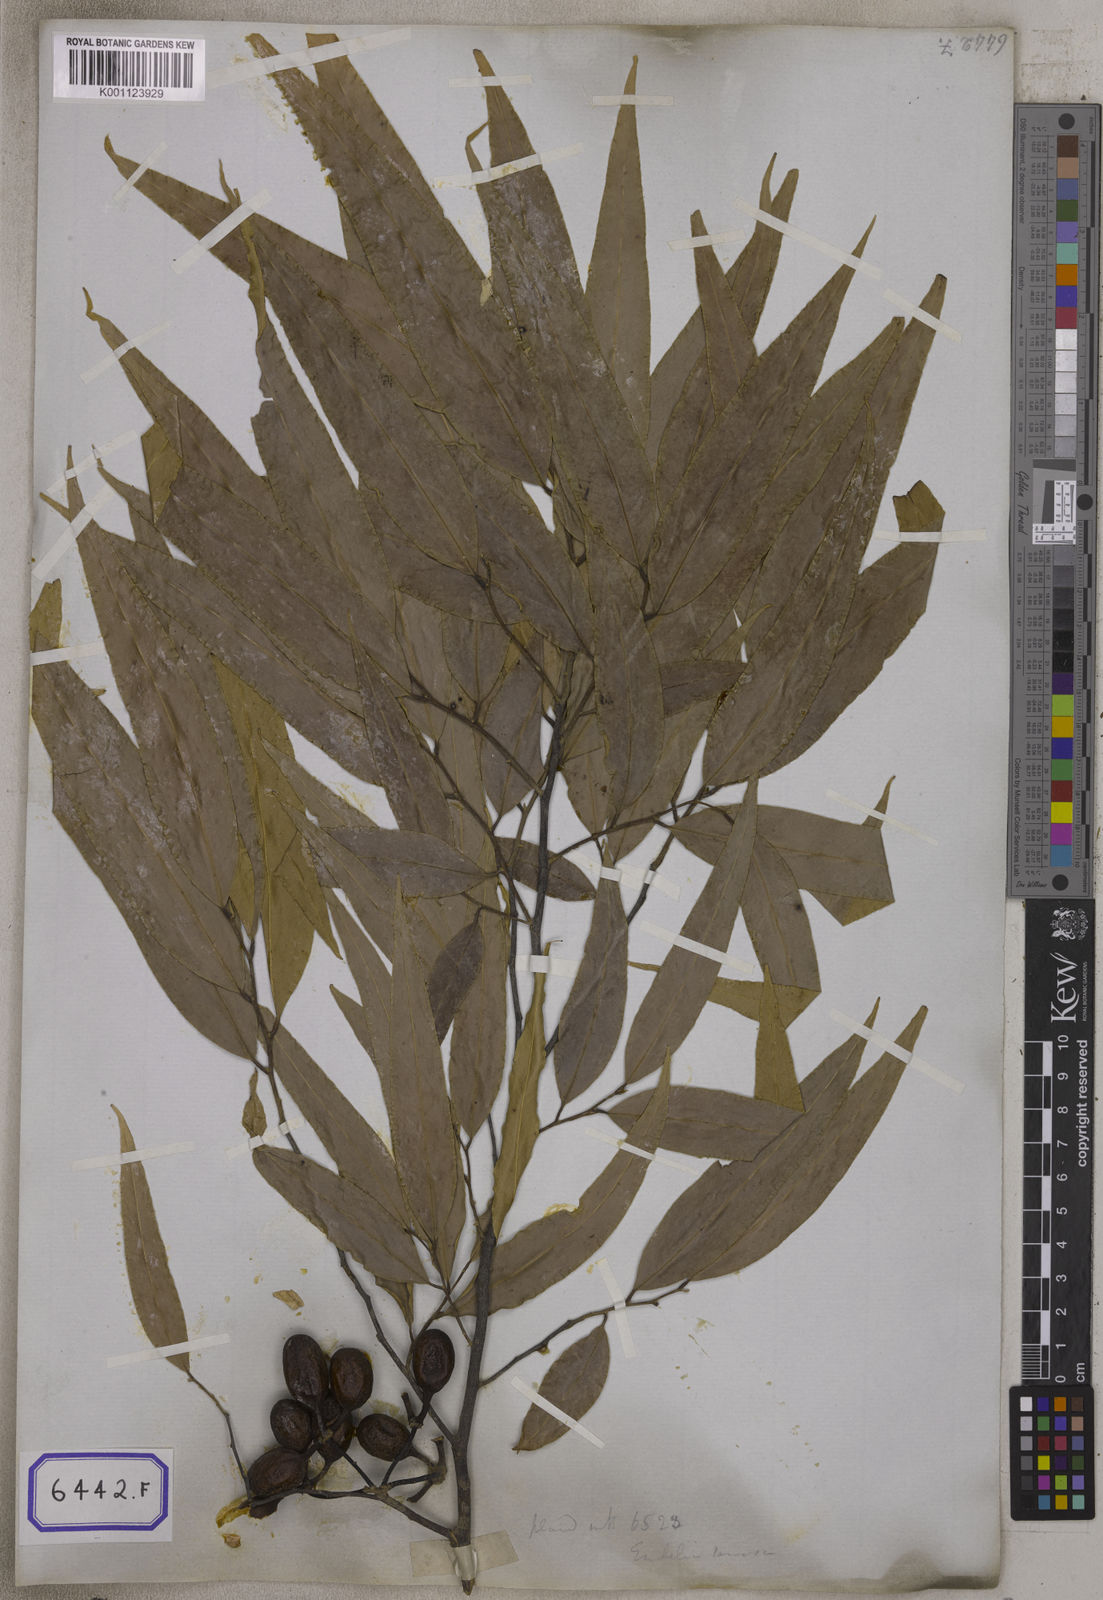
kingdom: Plantae
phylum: Tracheophyta
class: Magnoliopsida
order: Magnoliales
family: Annonaceae
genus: Polyalthia
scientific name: Polyalthia longifolia
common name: Cemetery-tree
